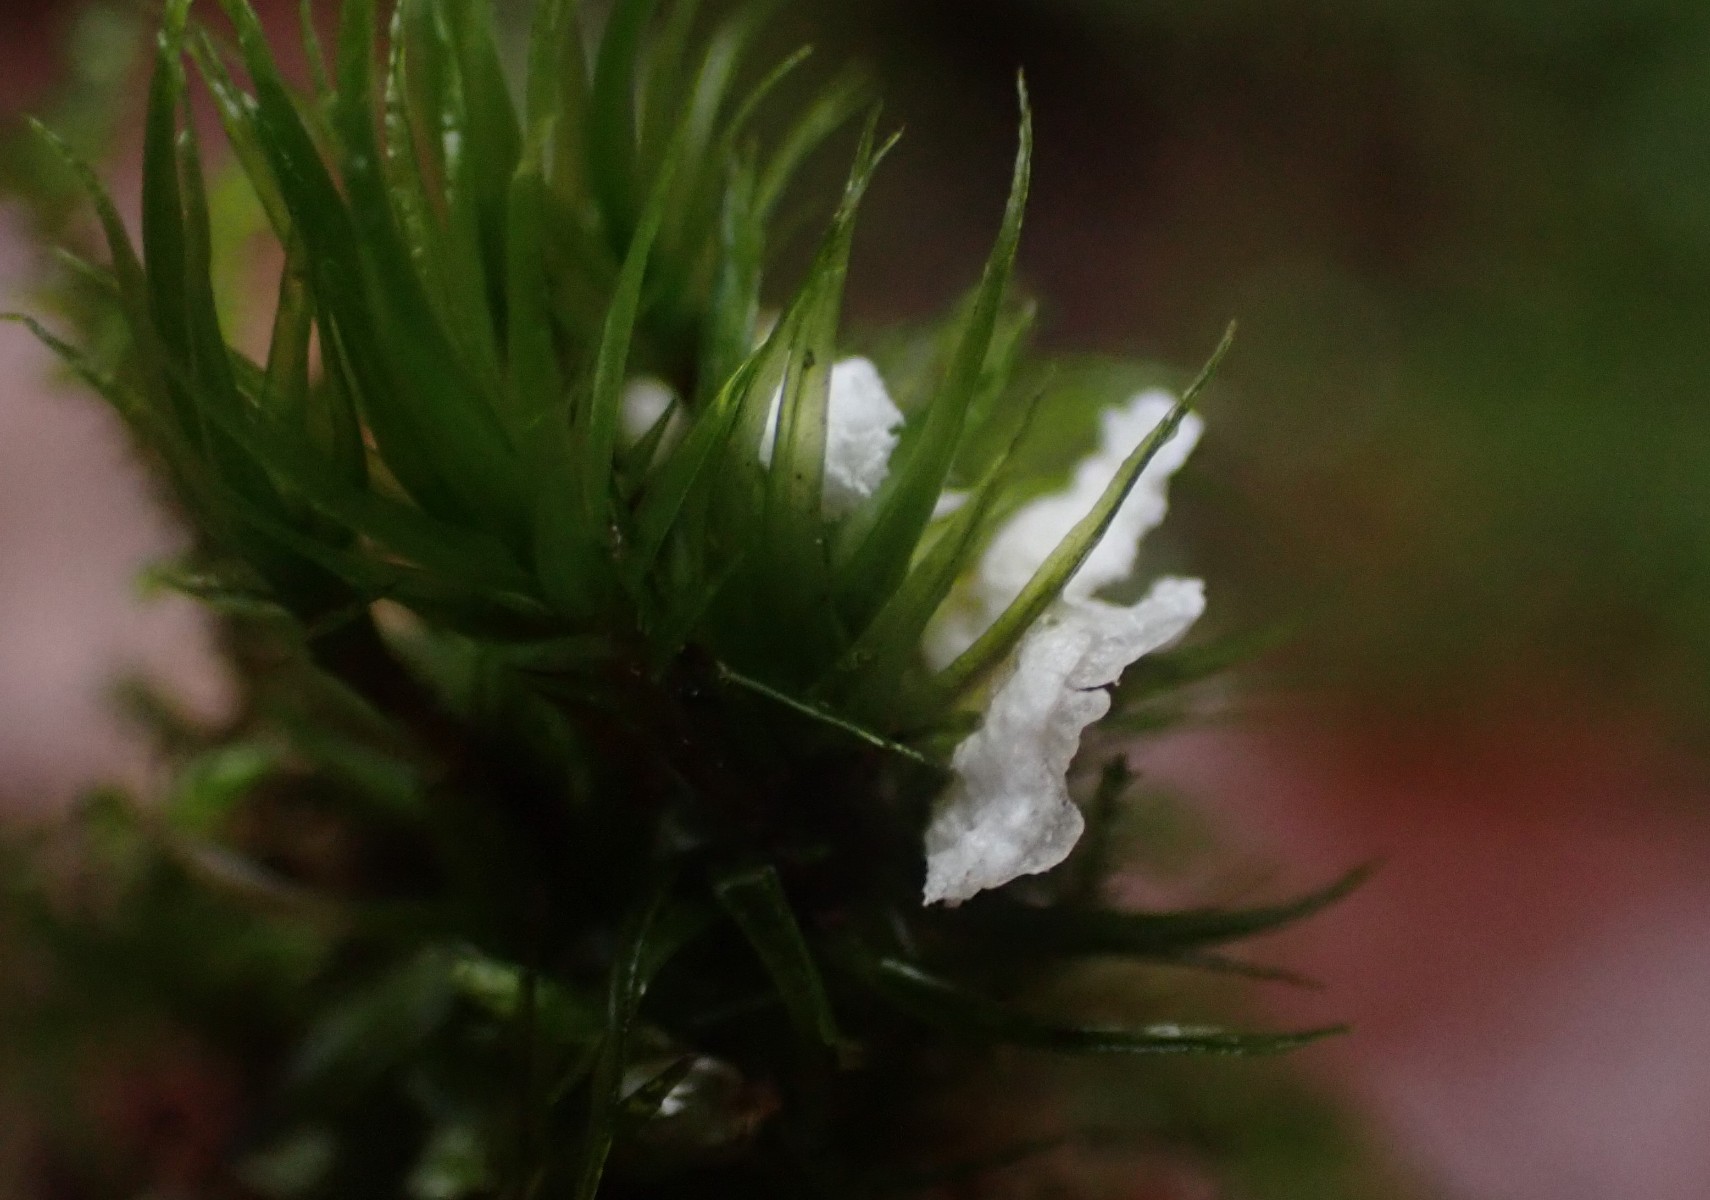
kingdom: Fungi
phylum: Basidiomycota
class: Agaricomycetes
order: Agaricales
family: Hygrophoraceae
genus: Arrhenia
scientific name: Arrhenia retiruga
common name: lille fontænehat
